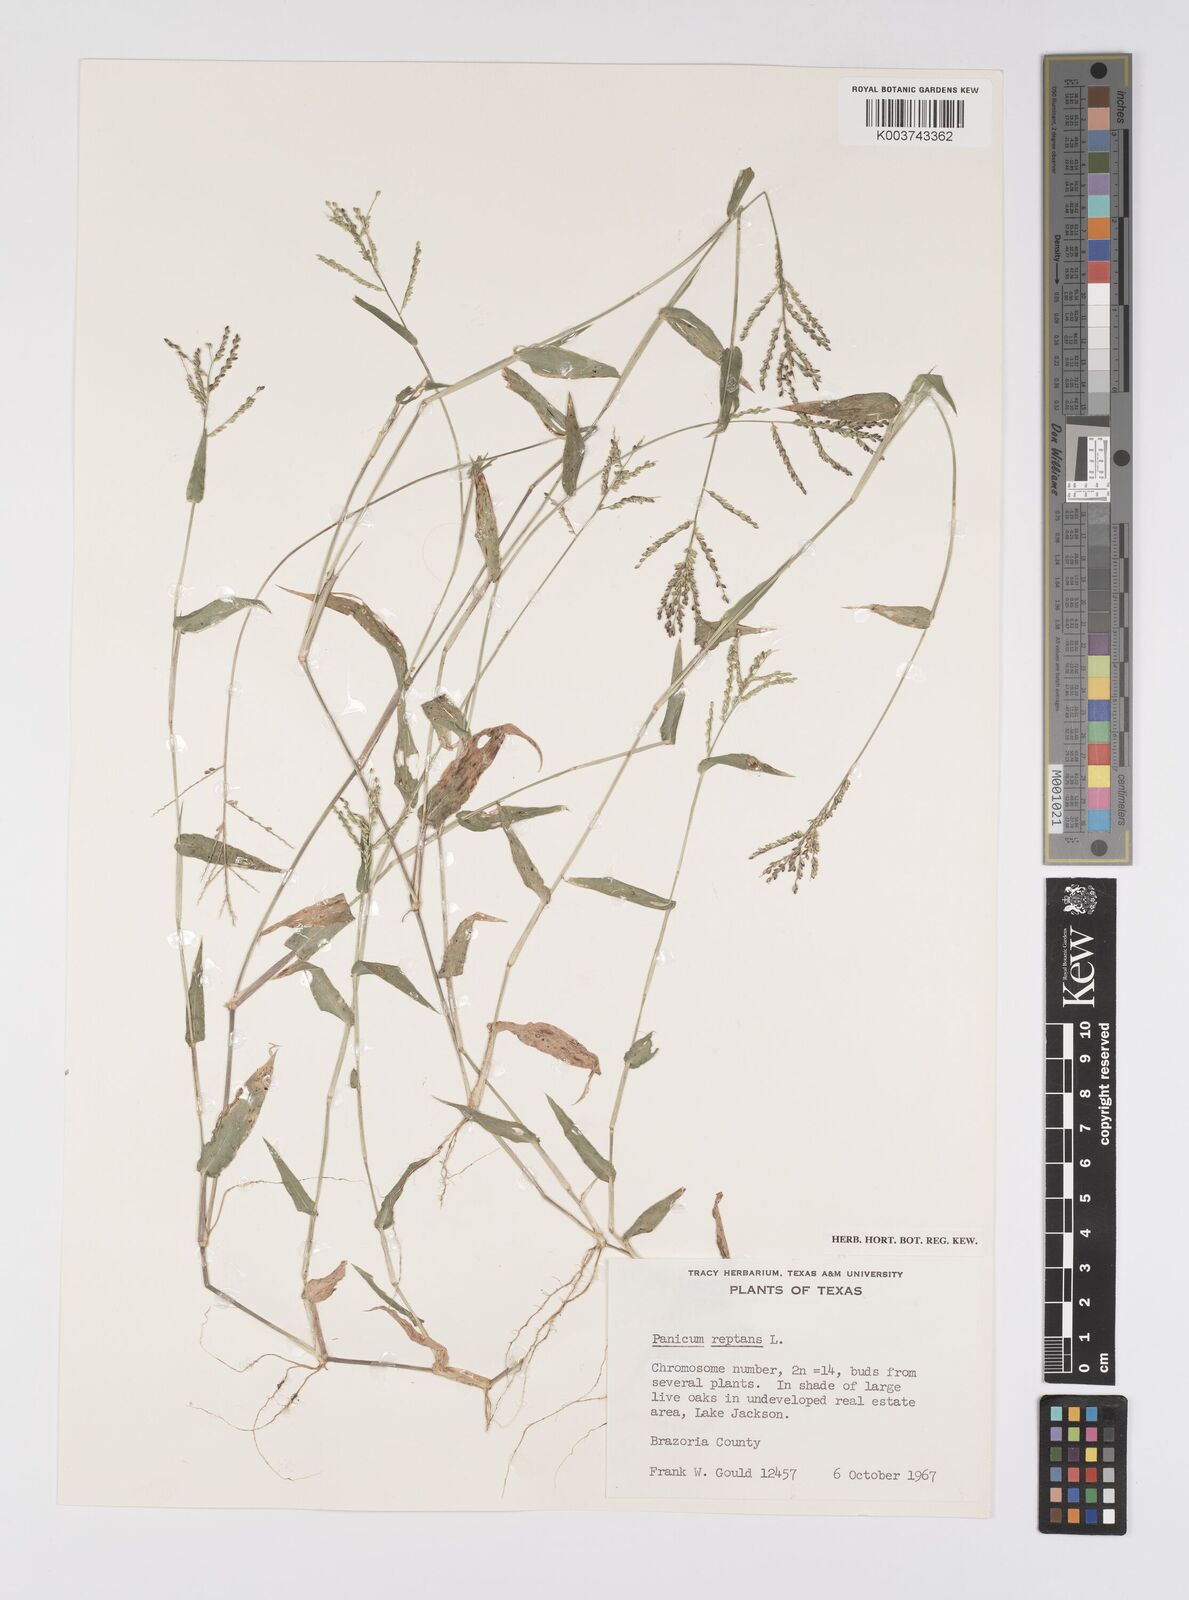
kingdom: Plantae
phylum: Tracheophyta
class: Liliopsida
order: Poales
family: Poaceae
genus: Urochloa
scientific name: Urochloa reptans
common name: Sprawling signalgrass
